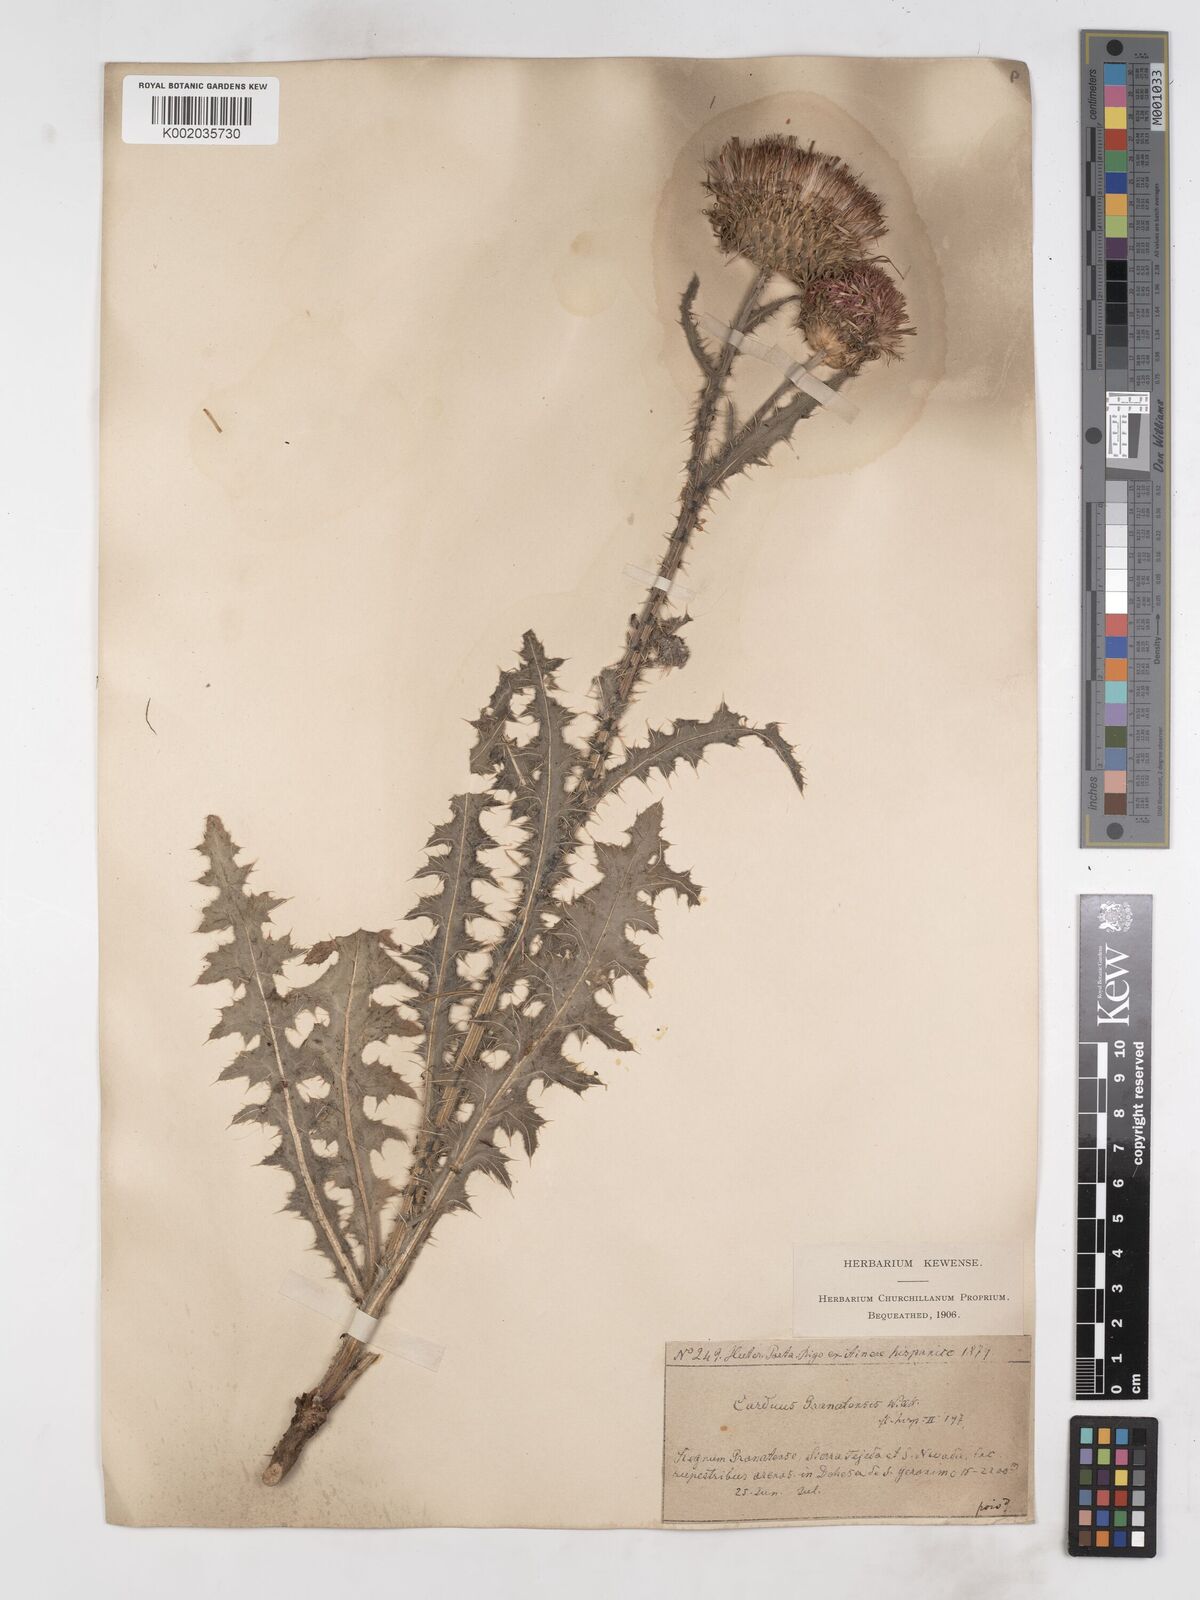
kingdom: Plantae
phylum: Tracheophyta
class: Magnoliopsida
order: Asterales
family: Asteraceae
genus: Carduus
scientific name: Carduus platypus
